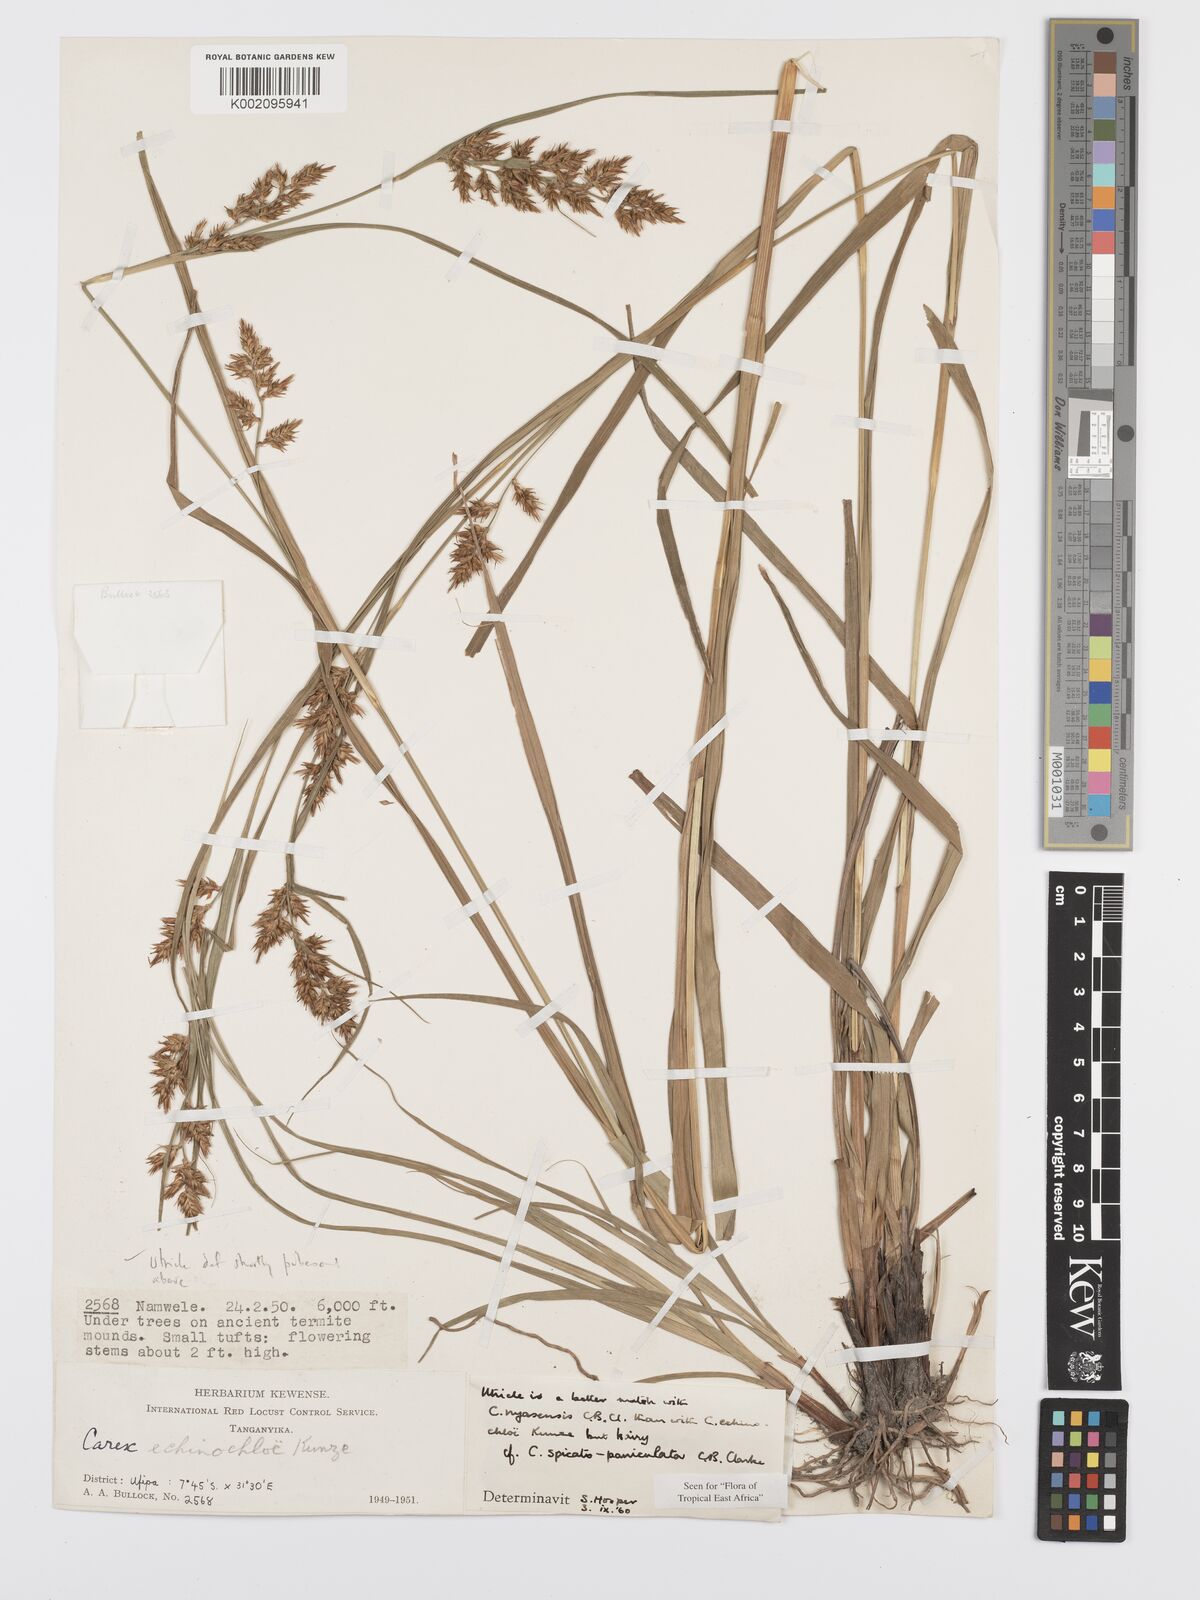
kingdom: Plantae
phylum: Tracheophyta
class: Liliopsida
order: Poales
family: Cyperaceae
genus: Carex
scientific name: Carex spicatopaniculata
